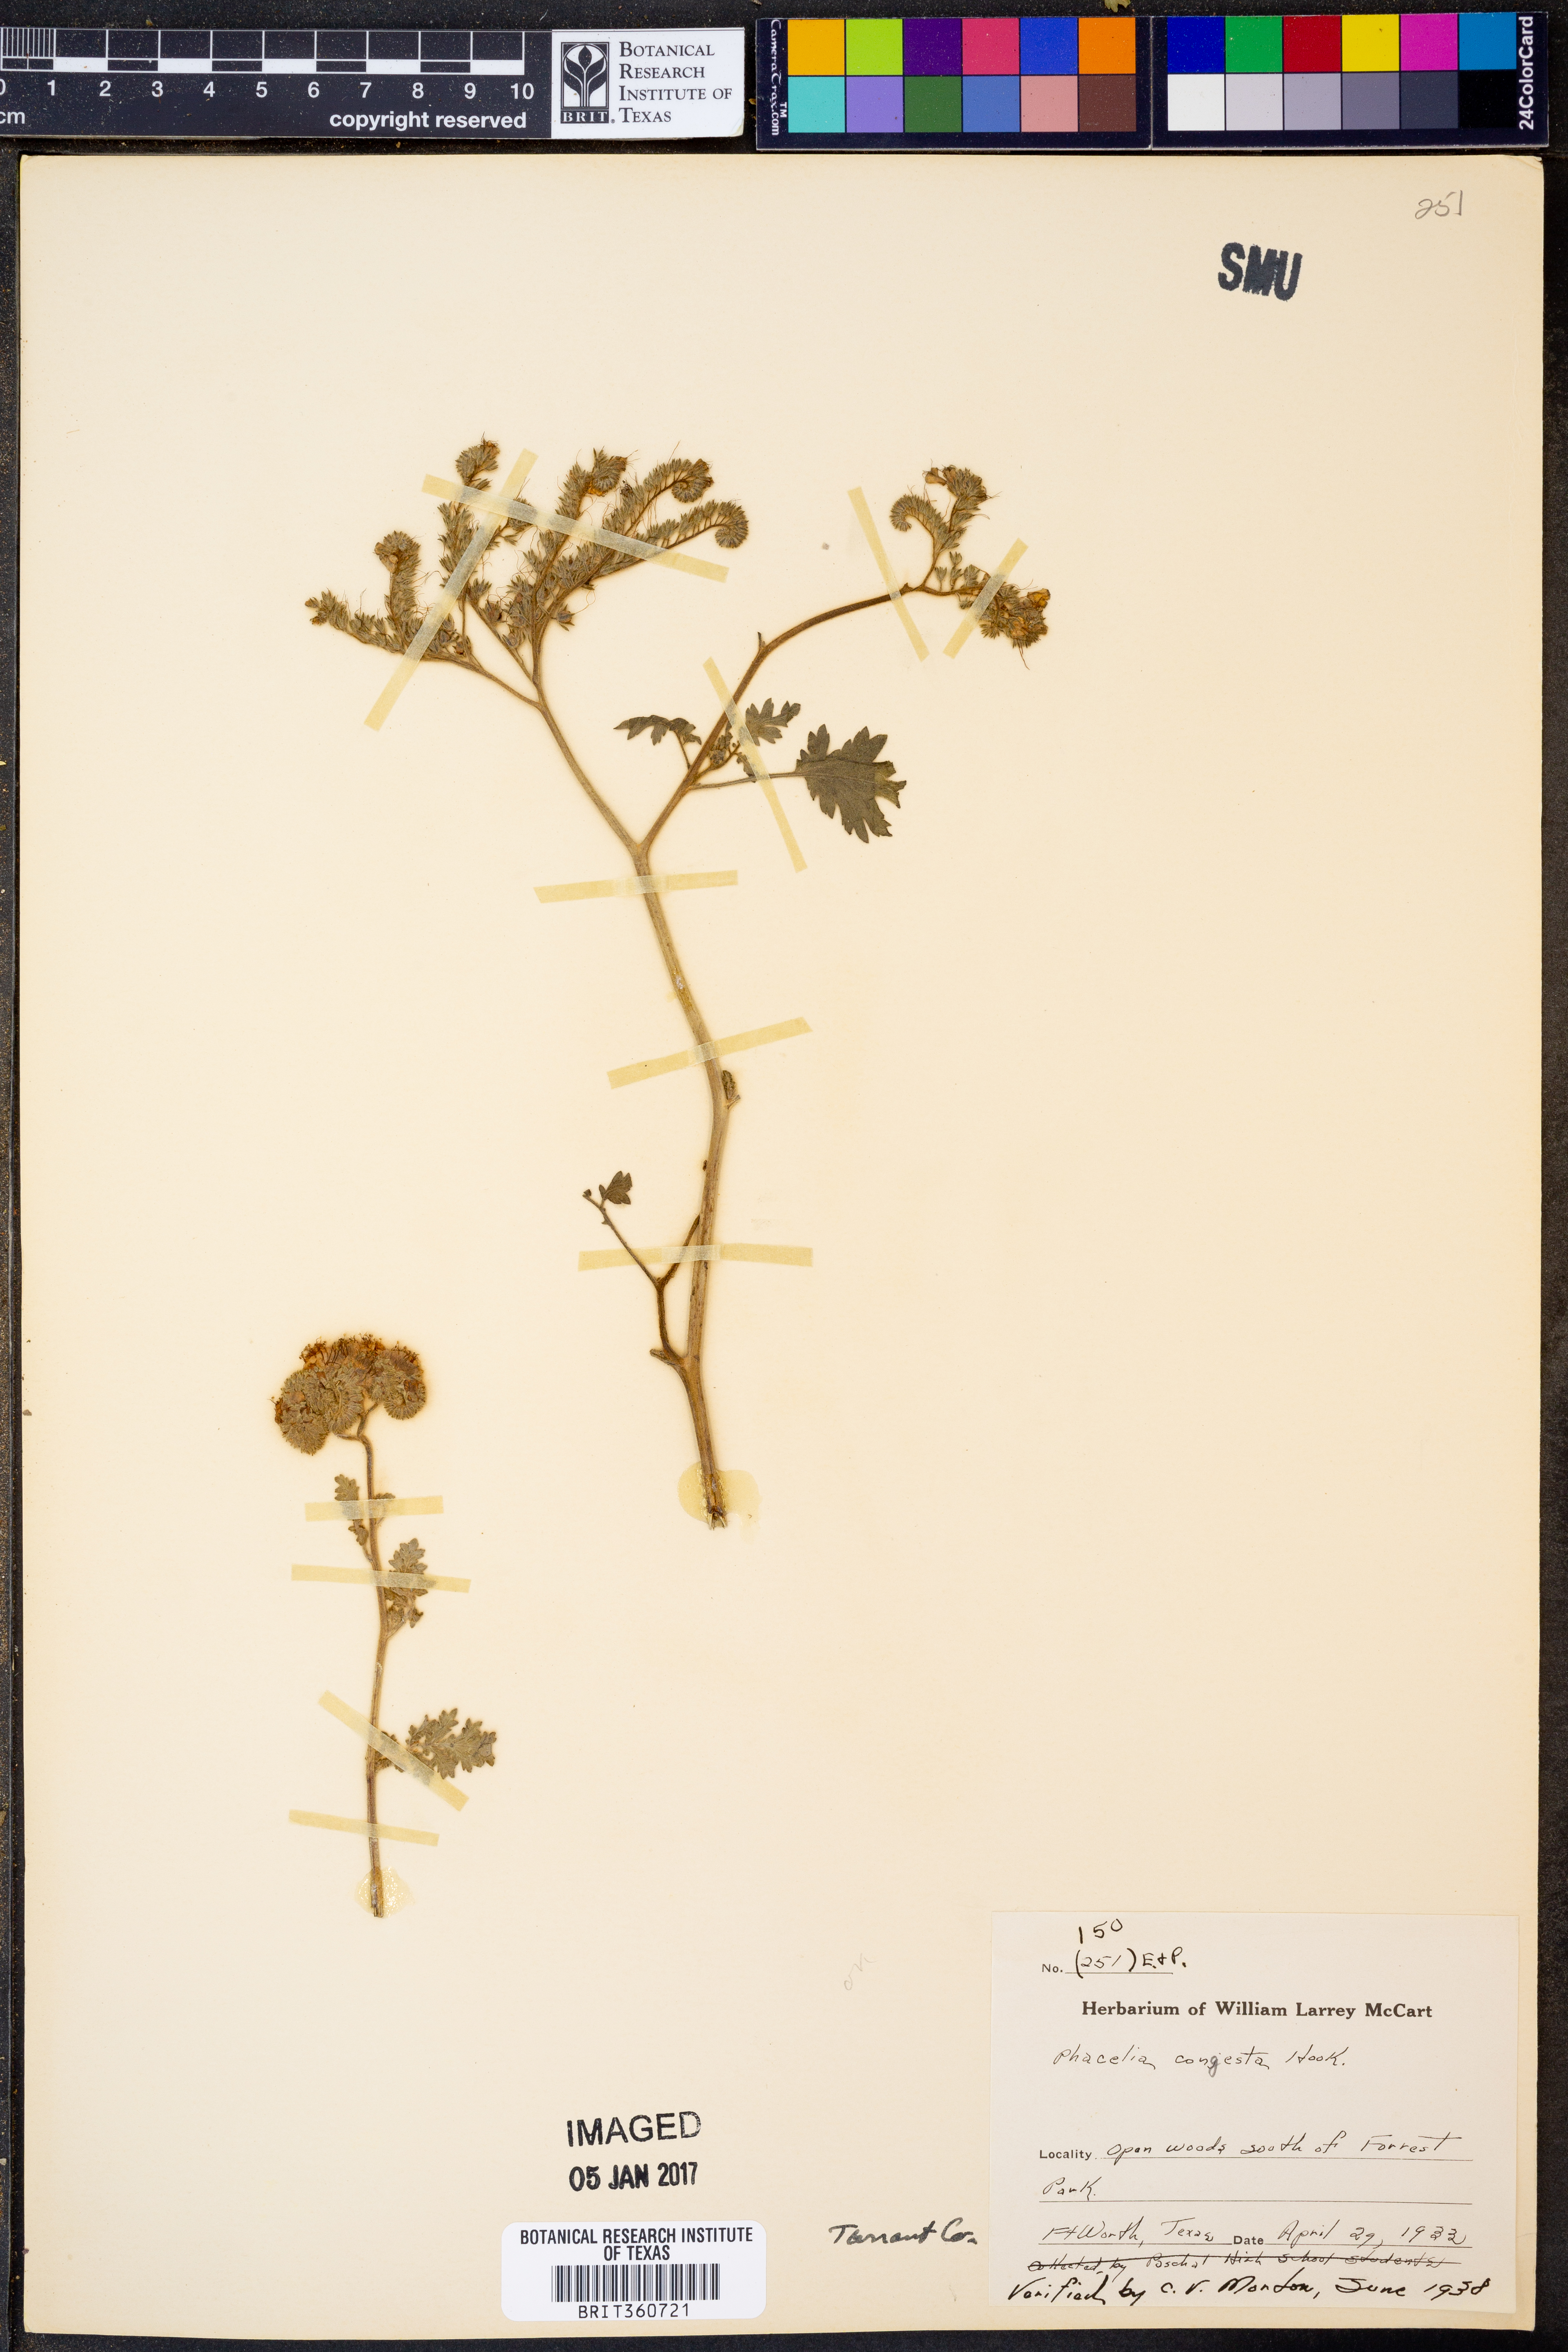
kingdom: Plantae
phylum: Tracheophyta
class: Magnoliopsida
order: Boraginales
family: Hydrophyllaceae
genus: Phacelia
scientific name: Phacelia congesta
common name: Blue curls
